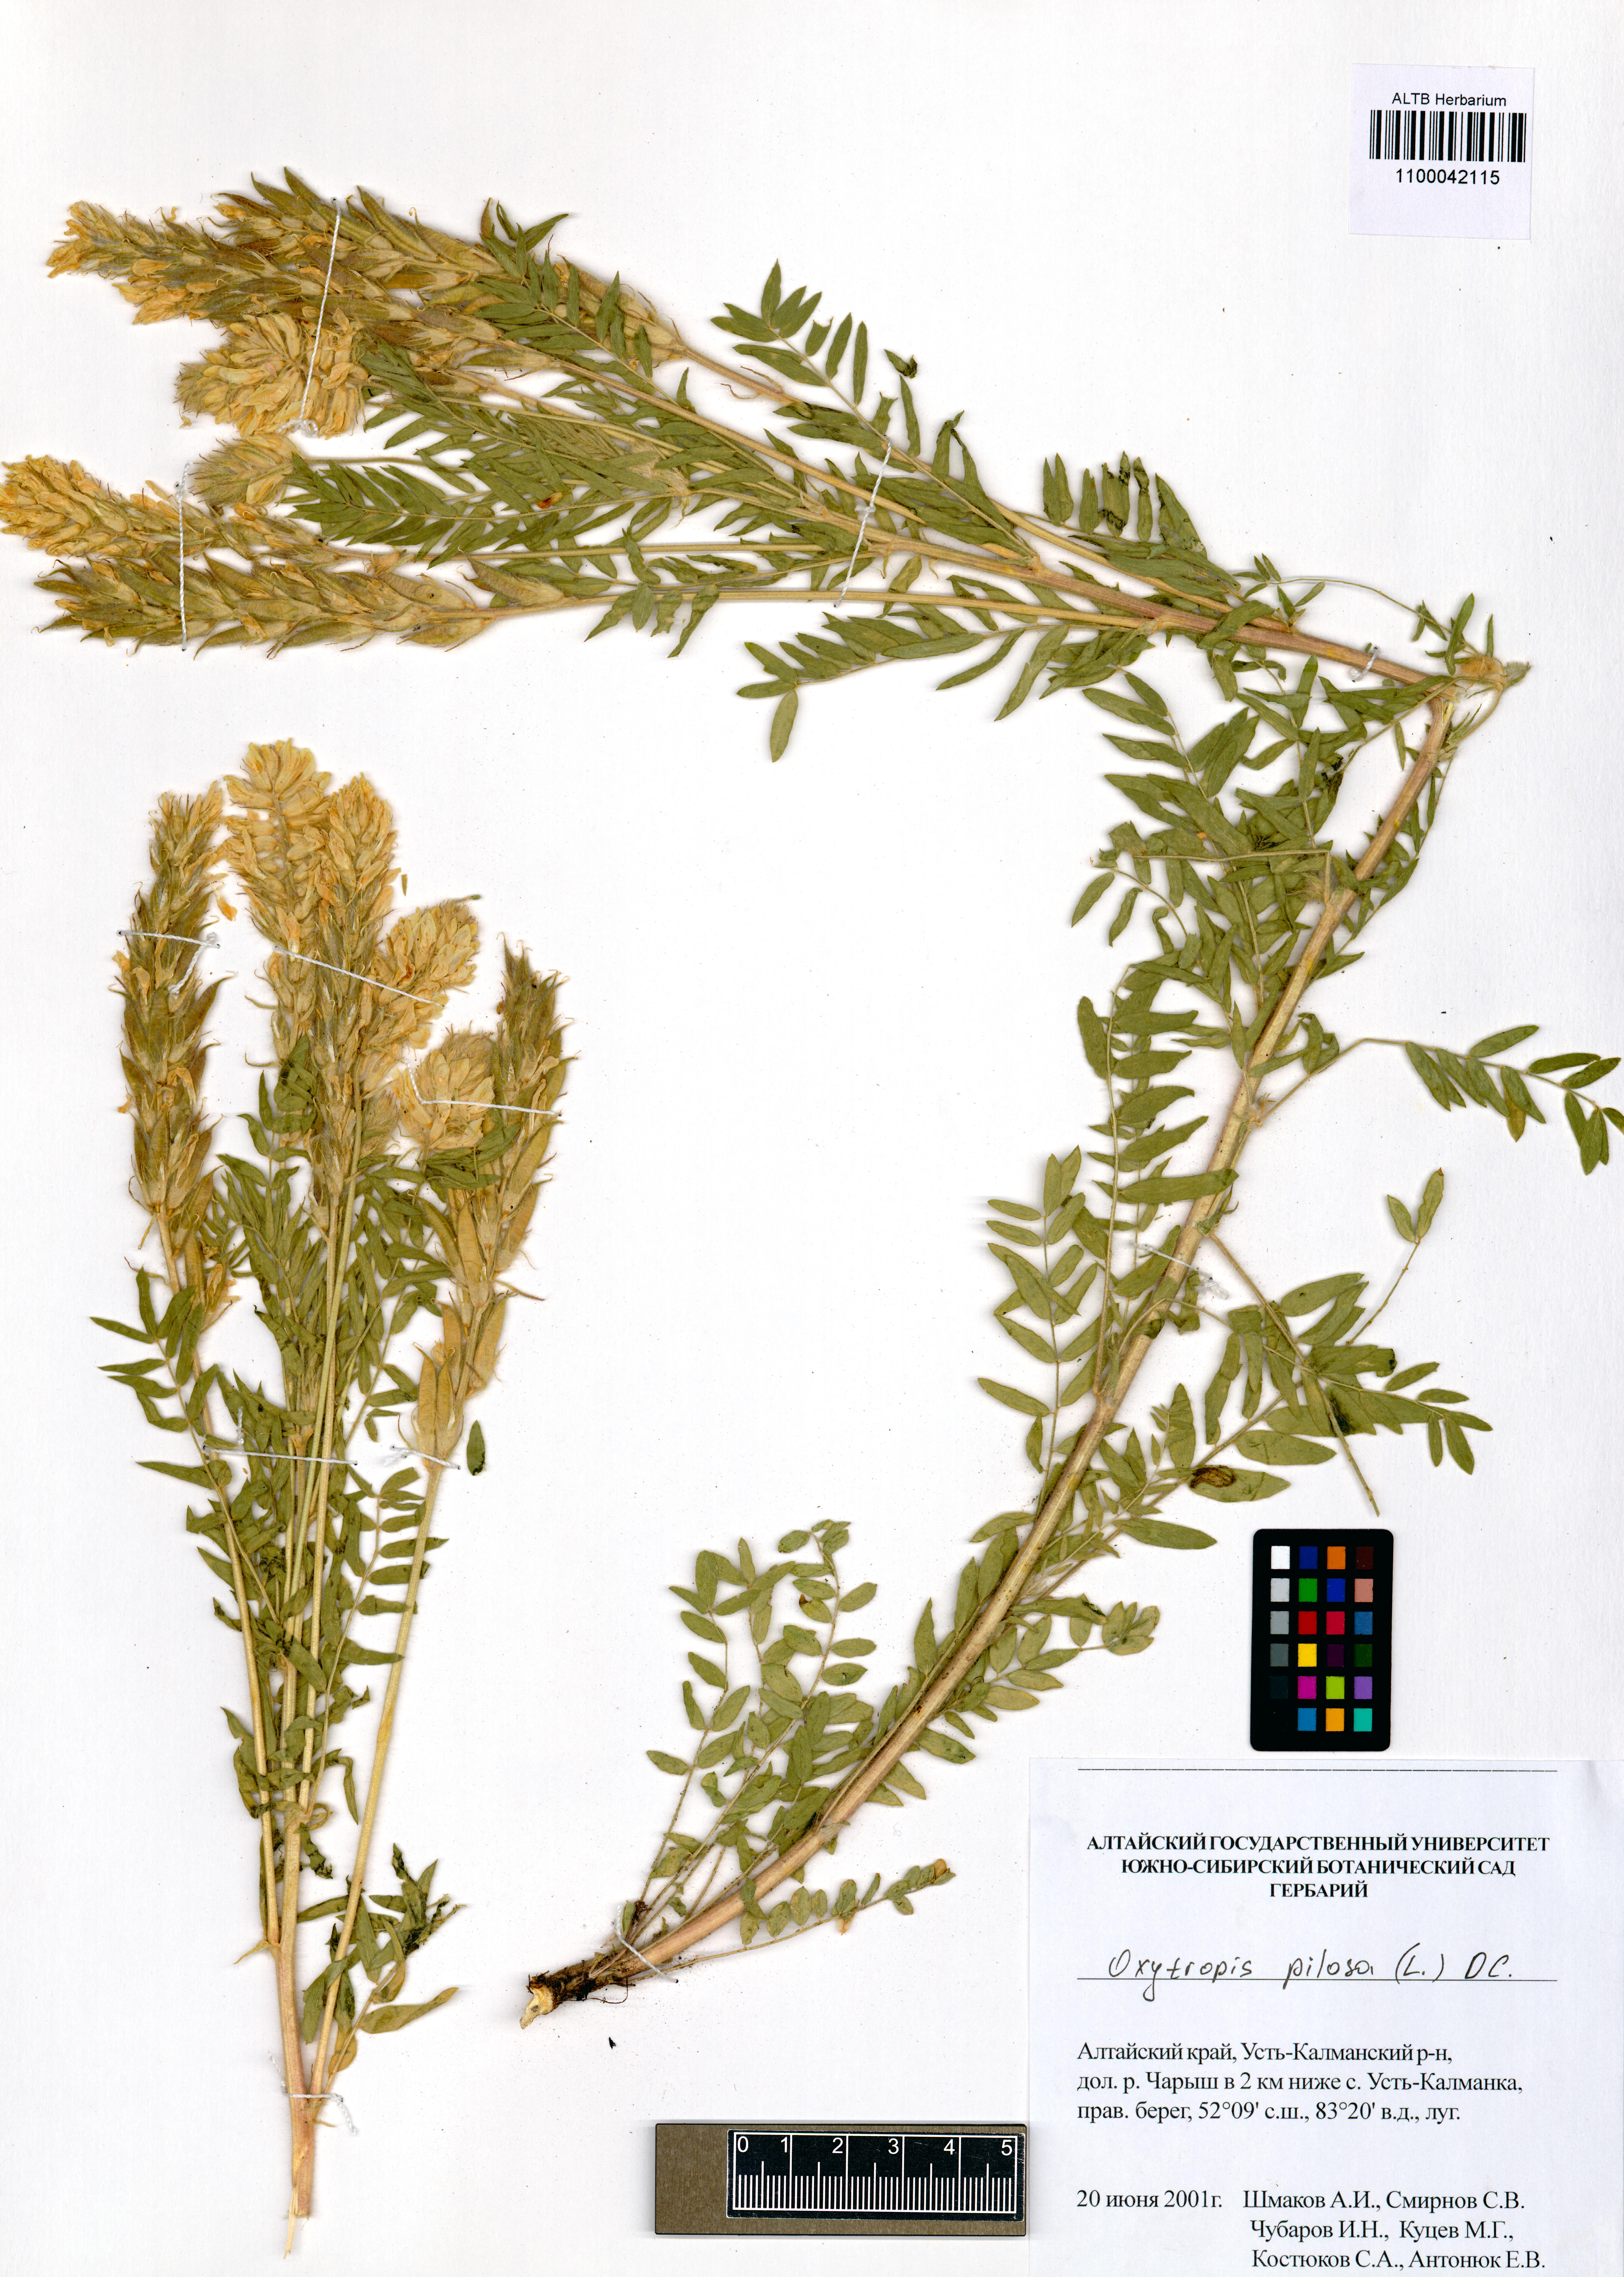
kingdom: Plantae
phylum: Tracheophyta
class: Magnoliopsida
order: Fabales
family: Fabaceae
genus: Oxytropis
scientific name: Oxytropis pilosa
